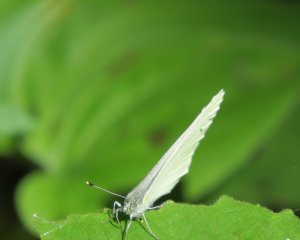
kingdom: Animalia
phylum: Arthropoda
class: Insecta
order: Lepidoptera
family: Pieridae
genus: Pieris
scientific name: Pieris oleracea
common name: Mustard White
